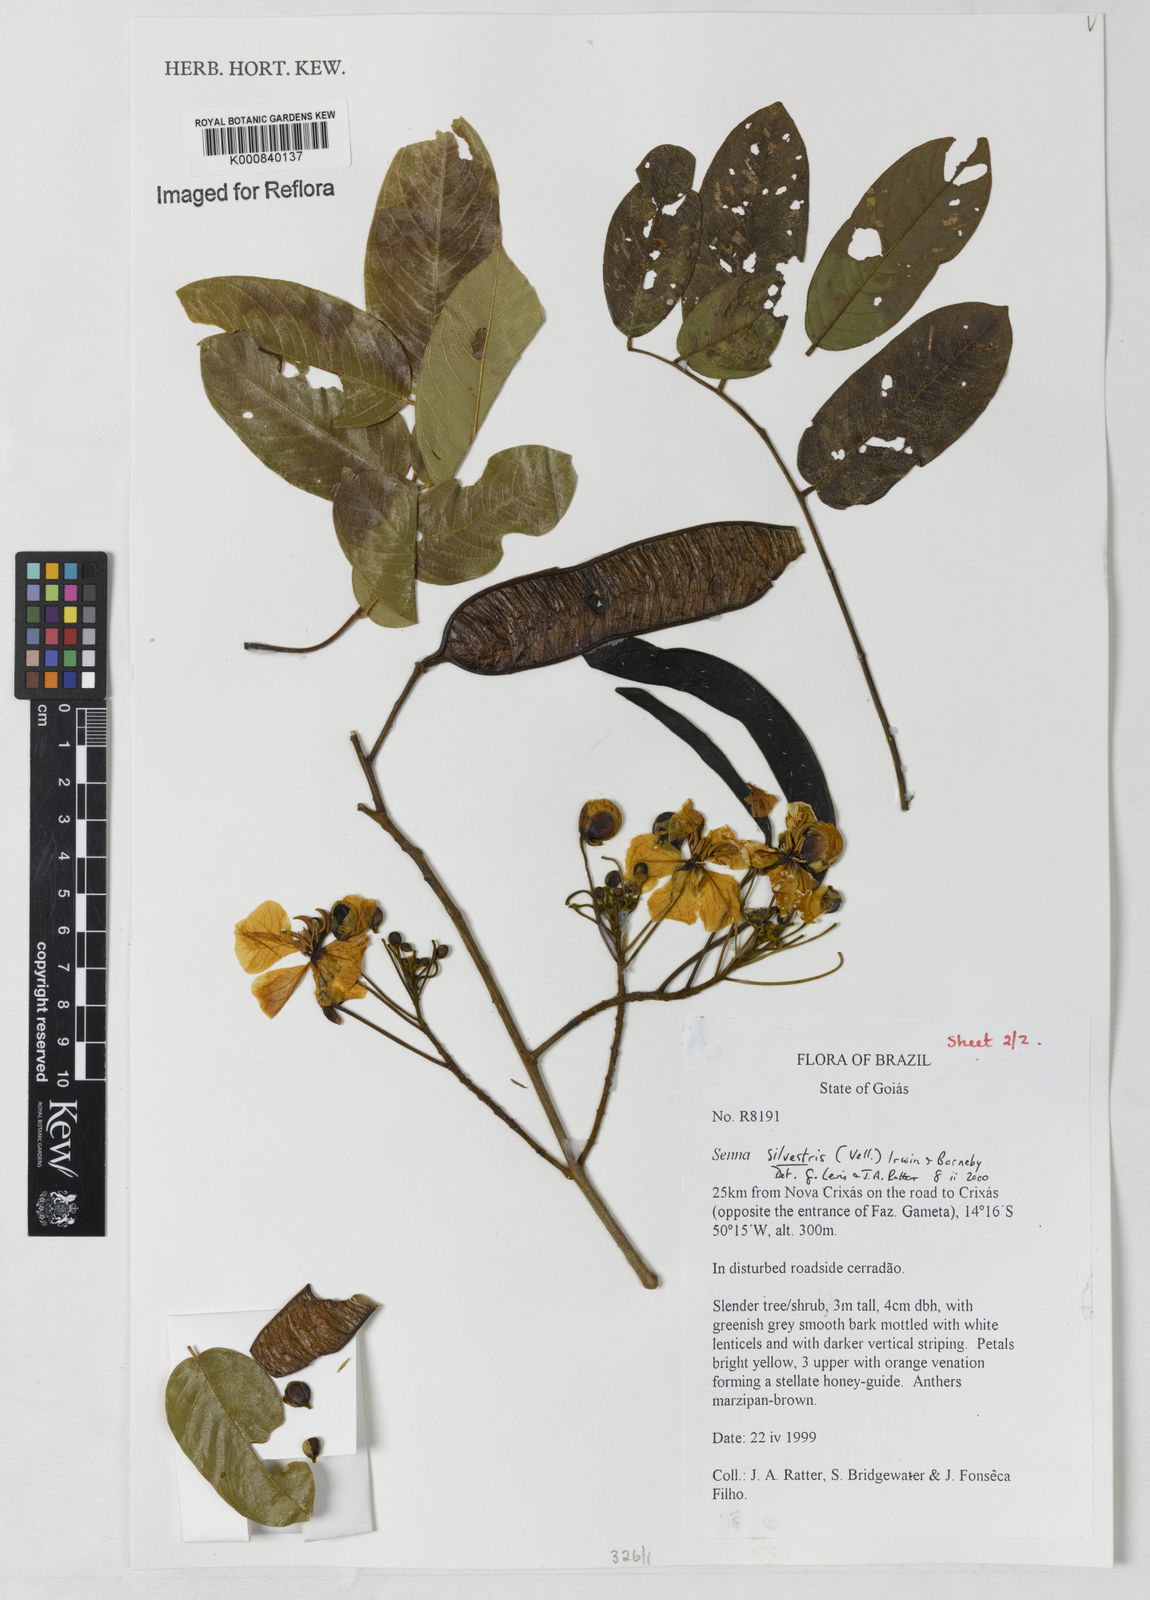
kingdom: Plantae
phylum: Tracheophyta
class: Magnoliopsida
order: Fabales
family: Fabaceae
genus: Senna
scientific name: Senna silvestris
